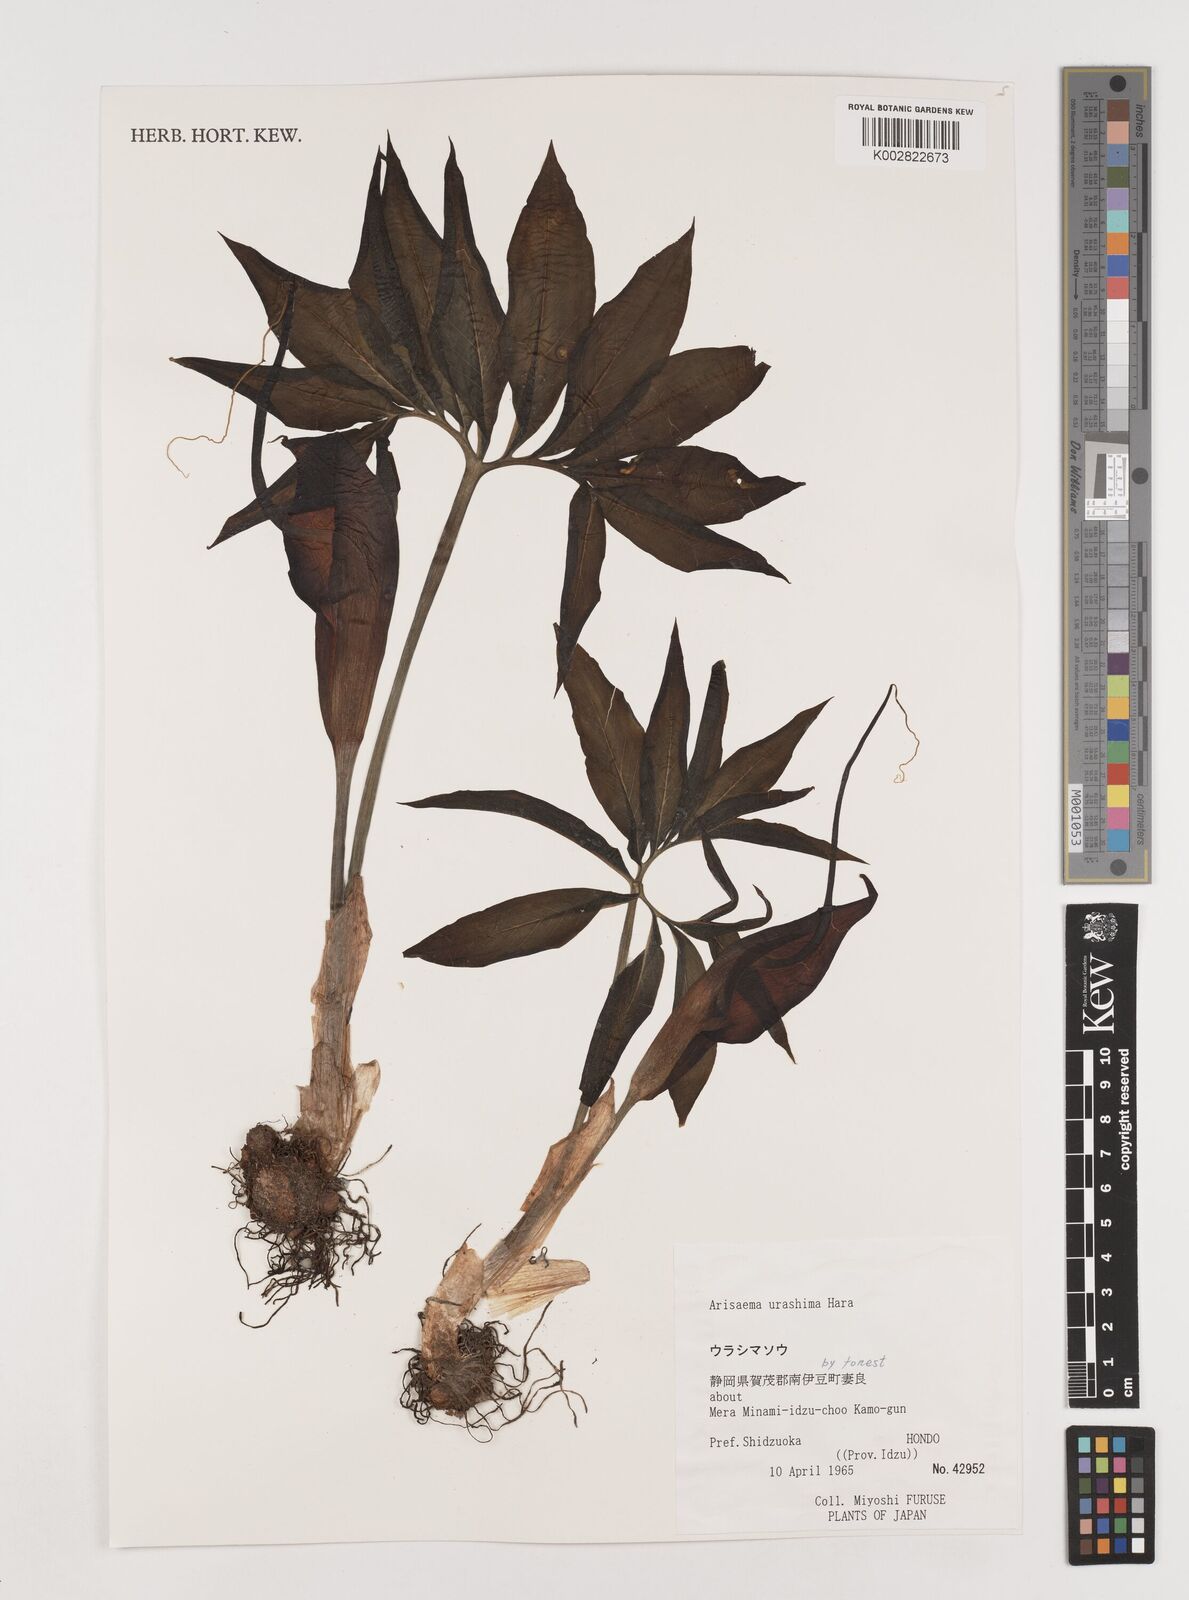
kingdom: Plantae
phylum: Tracheophyta
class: Liliopsida
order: Alismatales
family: Araceae
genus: Arisaema
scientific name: Arisaema
